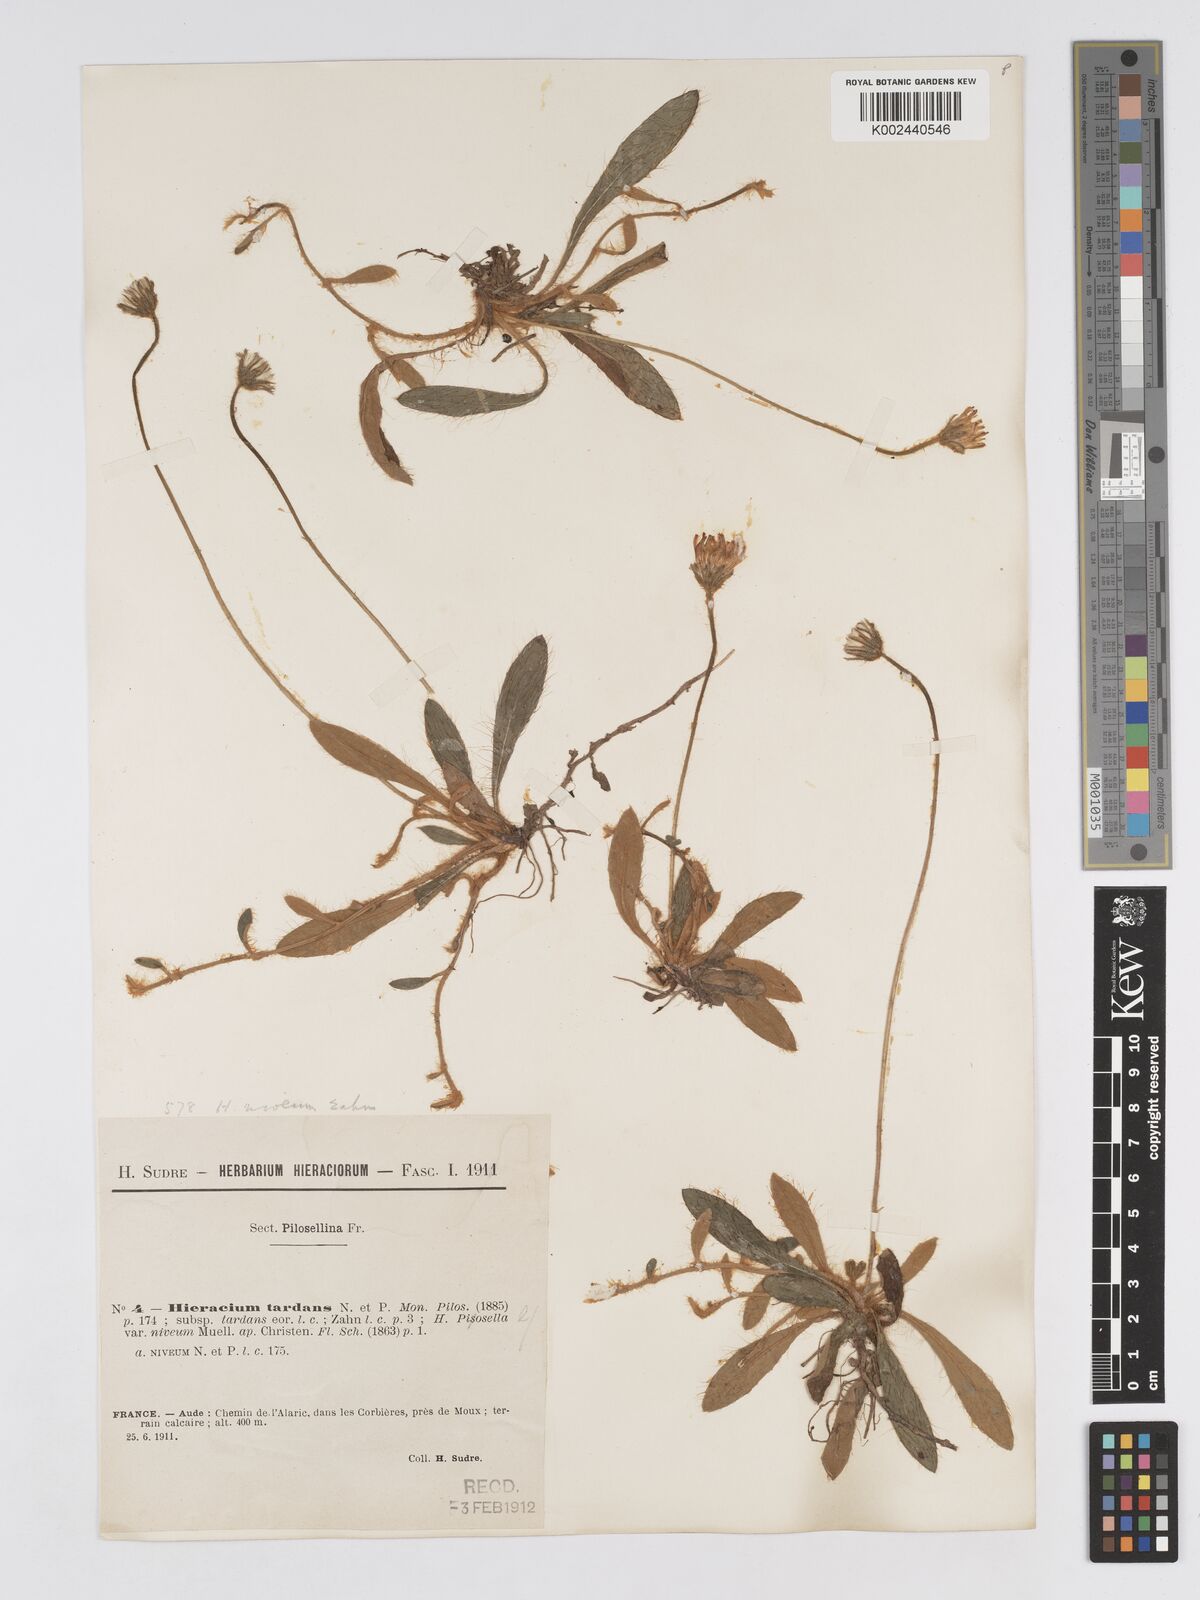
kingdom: Plantae
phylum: Tracheophyta
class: Magnoliopsida
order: Asterales
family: Asteraceae
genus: Pilosella
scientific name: Pilosella tardans
